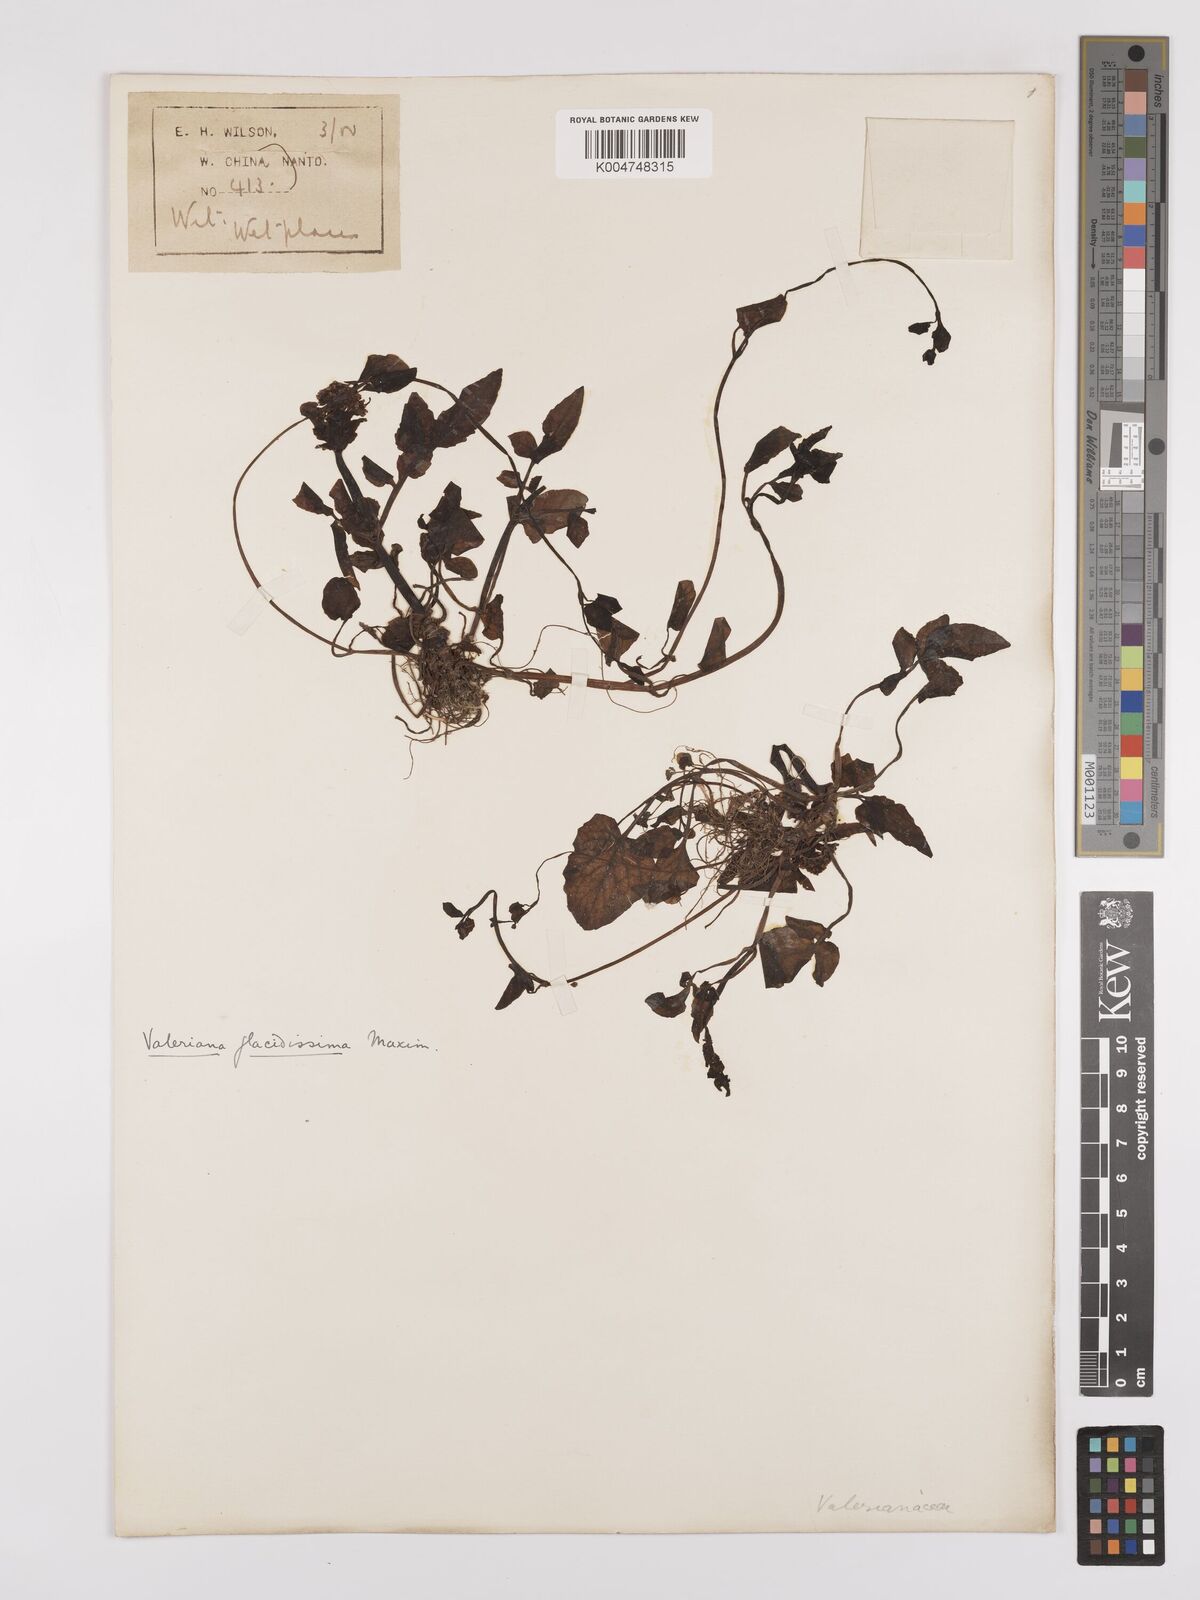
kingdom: Plantae
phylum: Tracheophyta
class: Magnoliopsida
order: Dipsacales
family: Caprifoliaceae
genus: Valeriana
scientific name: Valeriana flaccidissima
